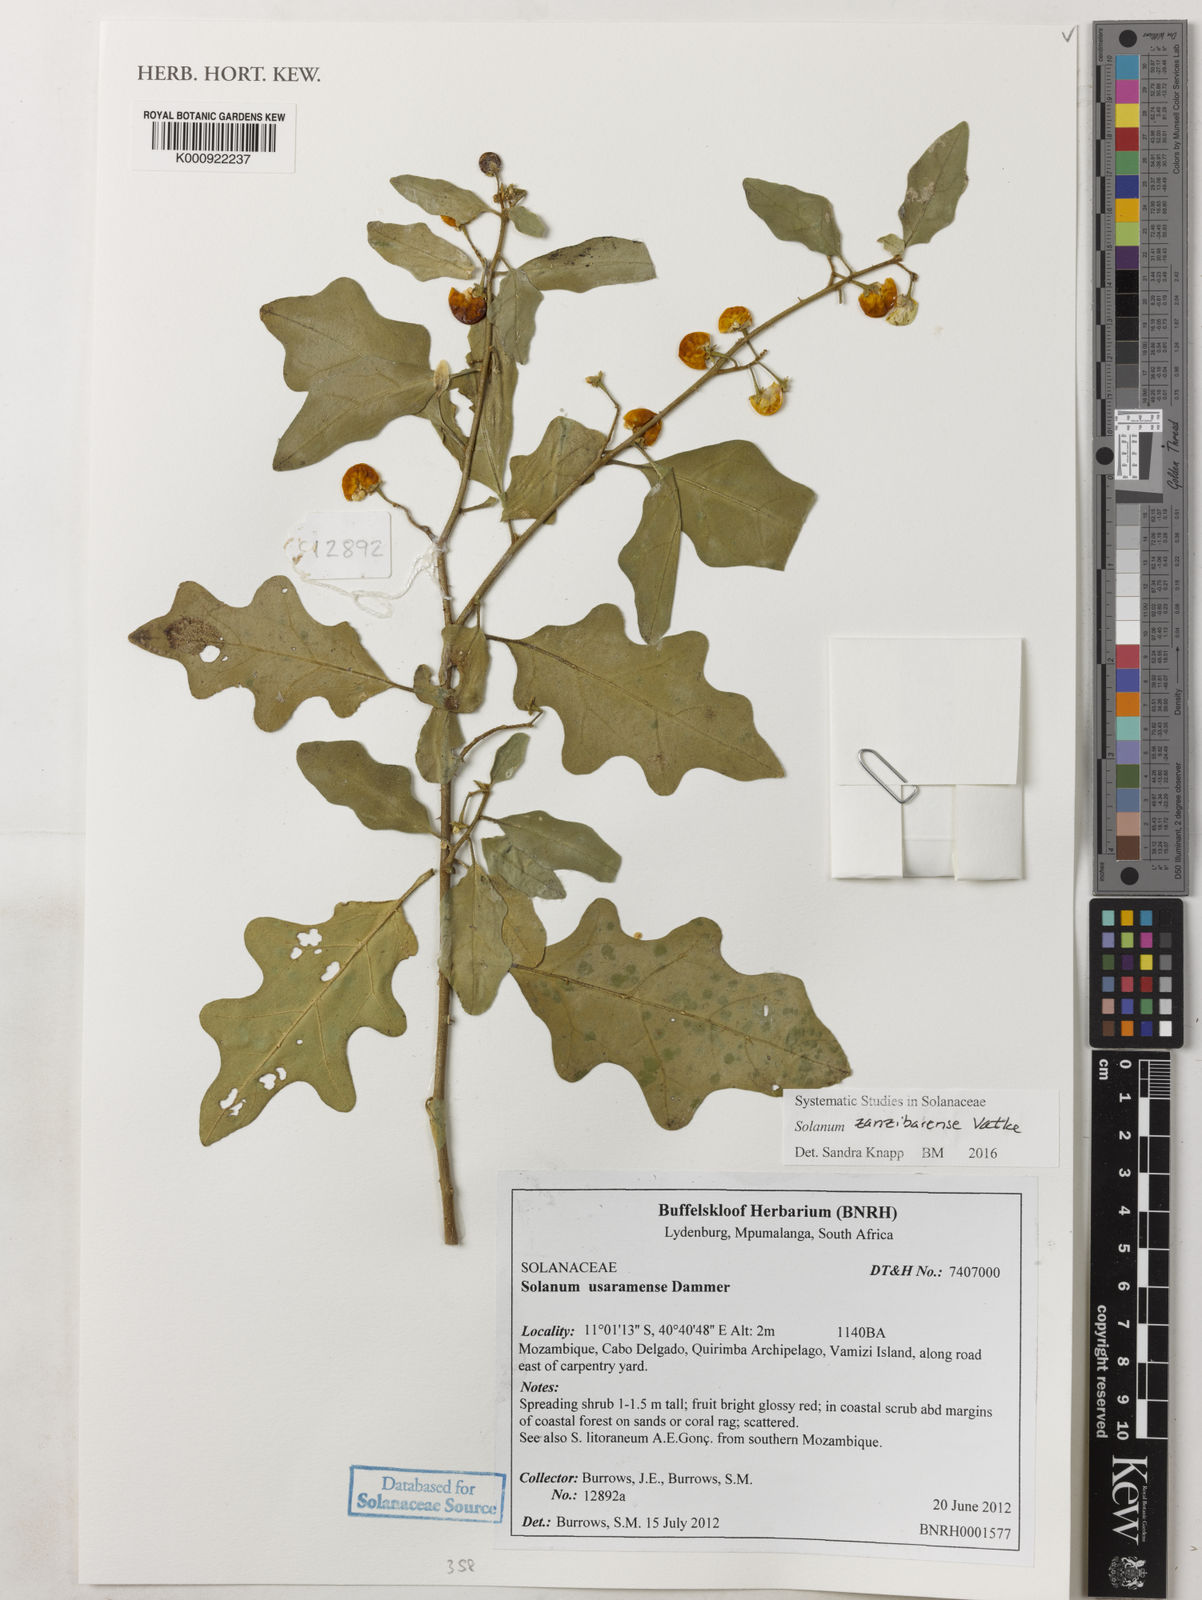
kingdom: Plantae
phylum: Tracheophyta
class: Magnoliopsida
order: Solanales
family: Solanaceae
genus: Solanum
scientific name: Solanum zanzibarense
